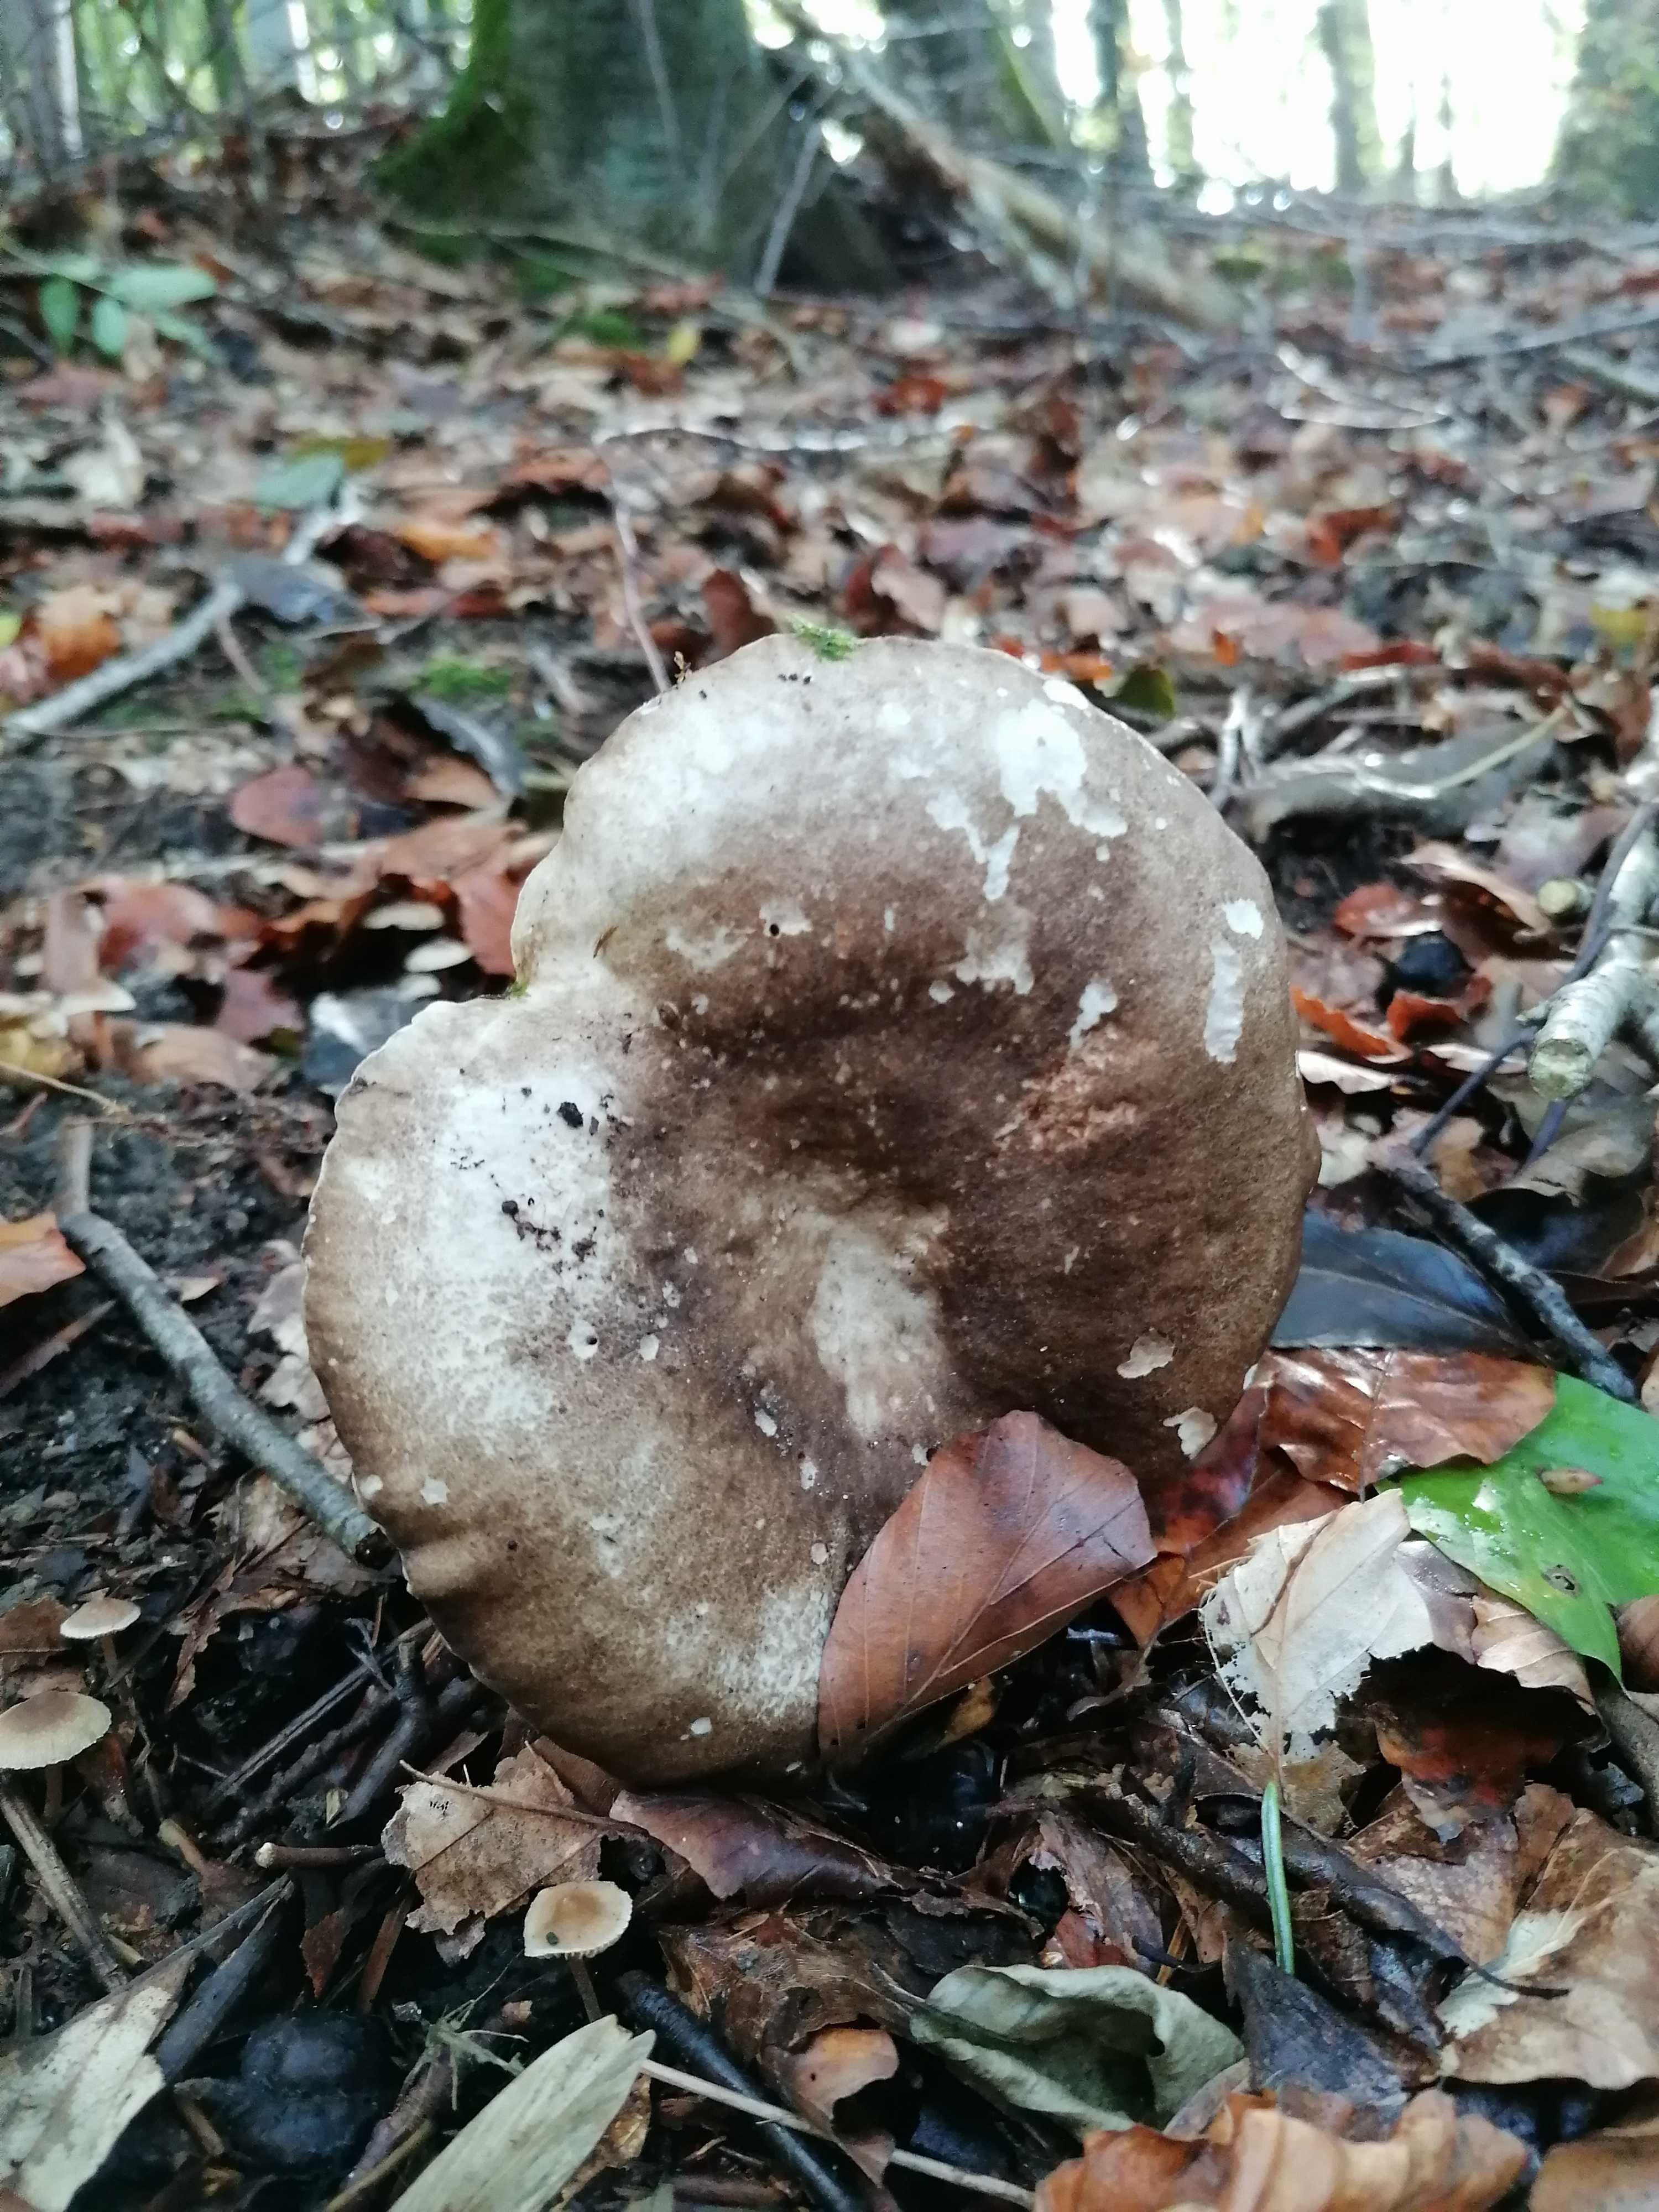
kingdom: Fungi
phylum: Basidiomycota
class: Agaricomycetes
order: Russulales
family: Russulaceae
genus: Russula
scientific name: Russula adusta
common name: sværtende skørhat
